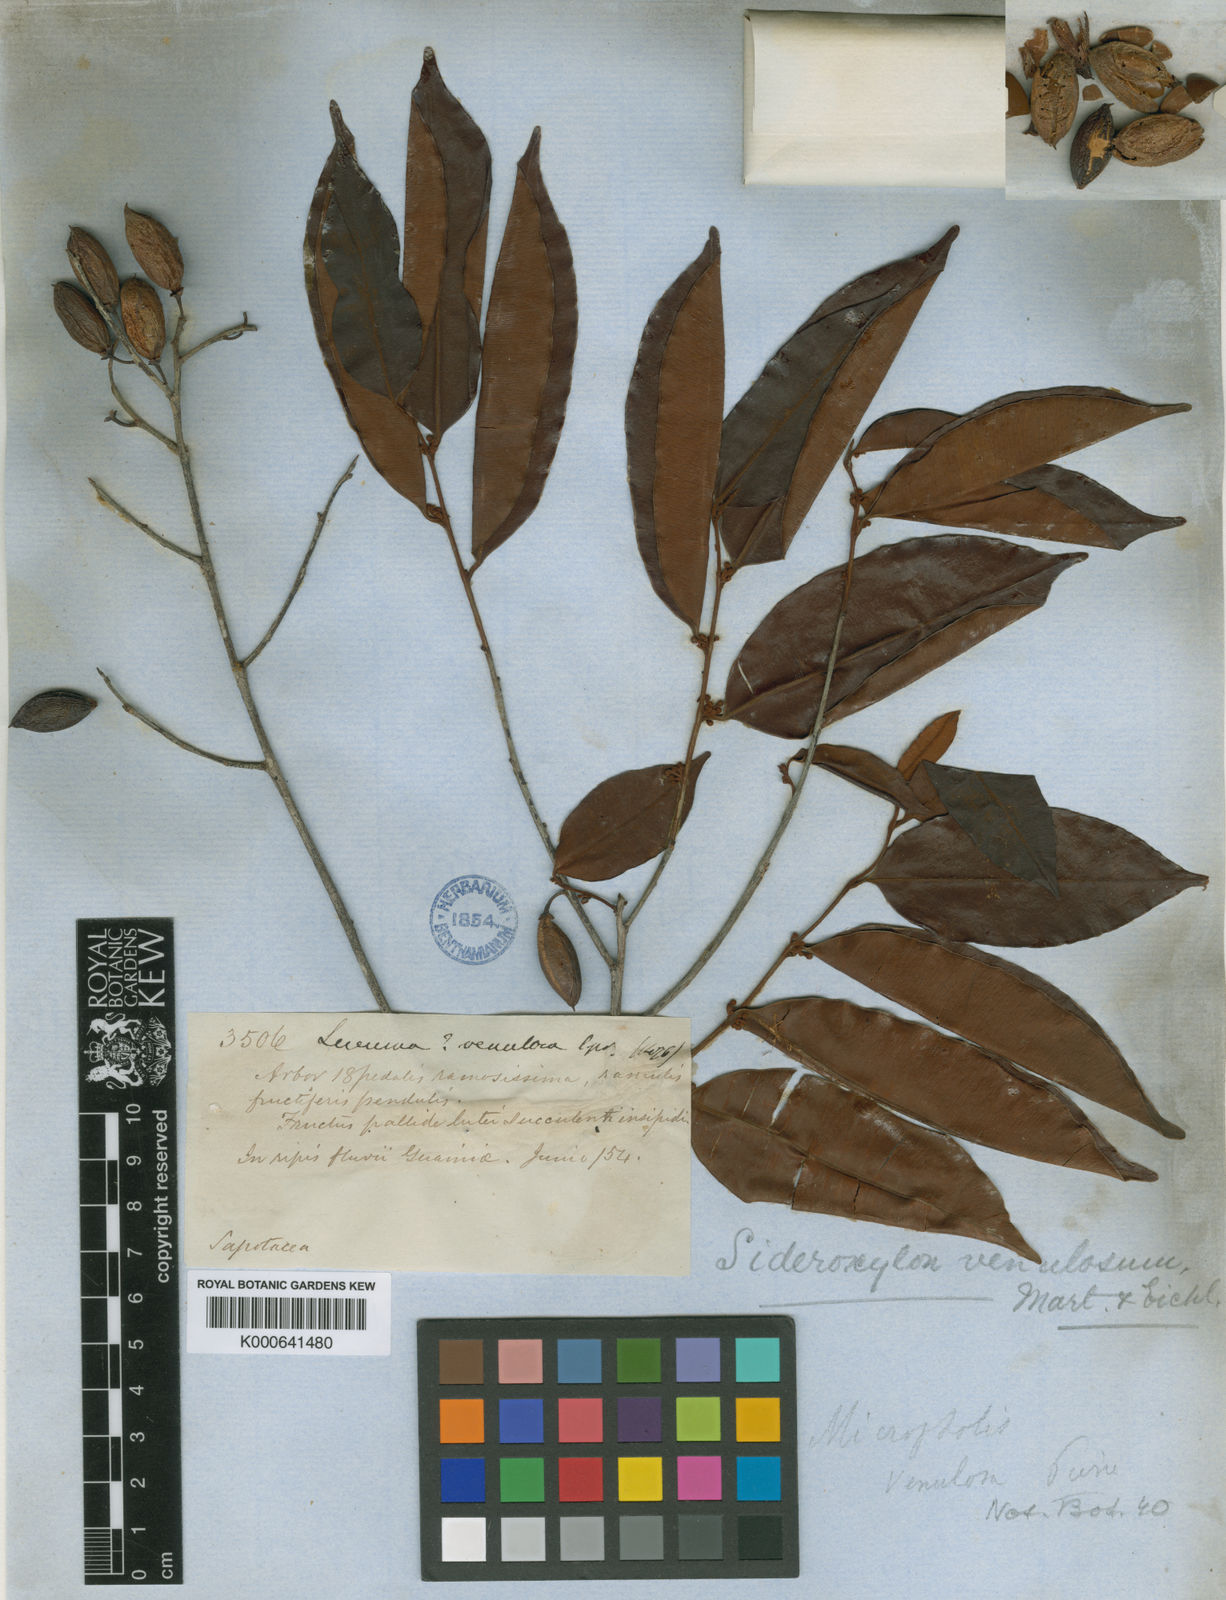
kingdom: Plantae
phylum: Tracheophyta
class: Magnoliopsida
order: Ericales
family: Sapotaceae
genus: Micropholis
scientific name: Micropholis venulosa
